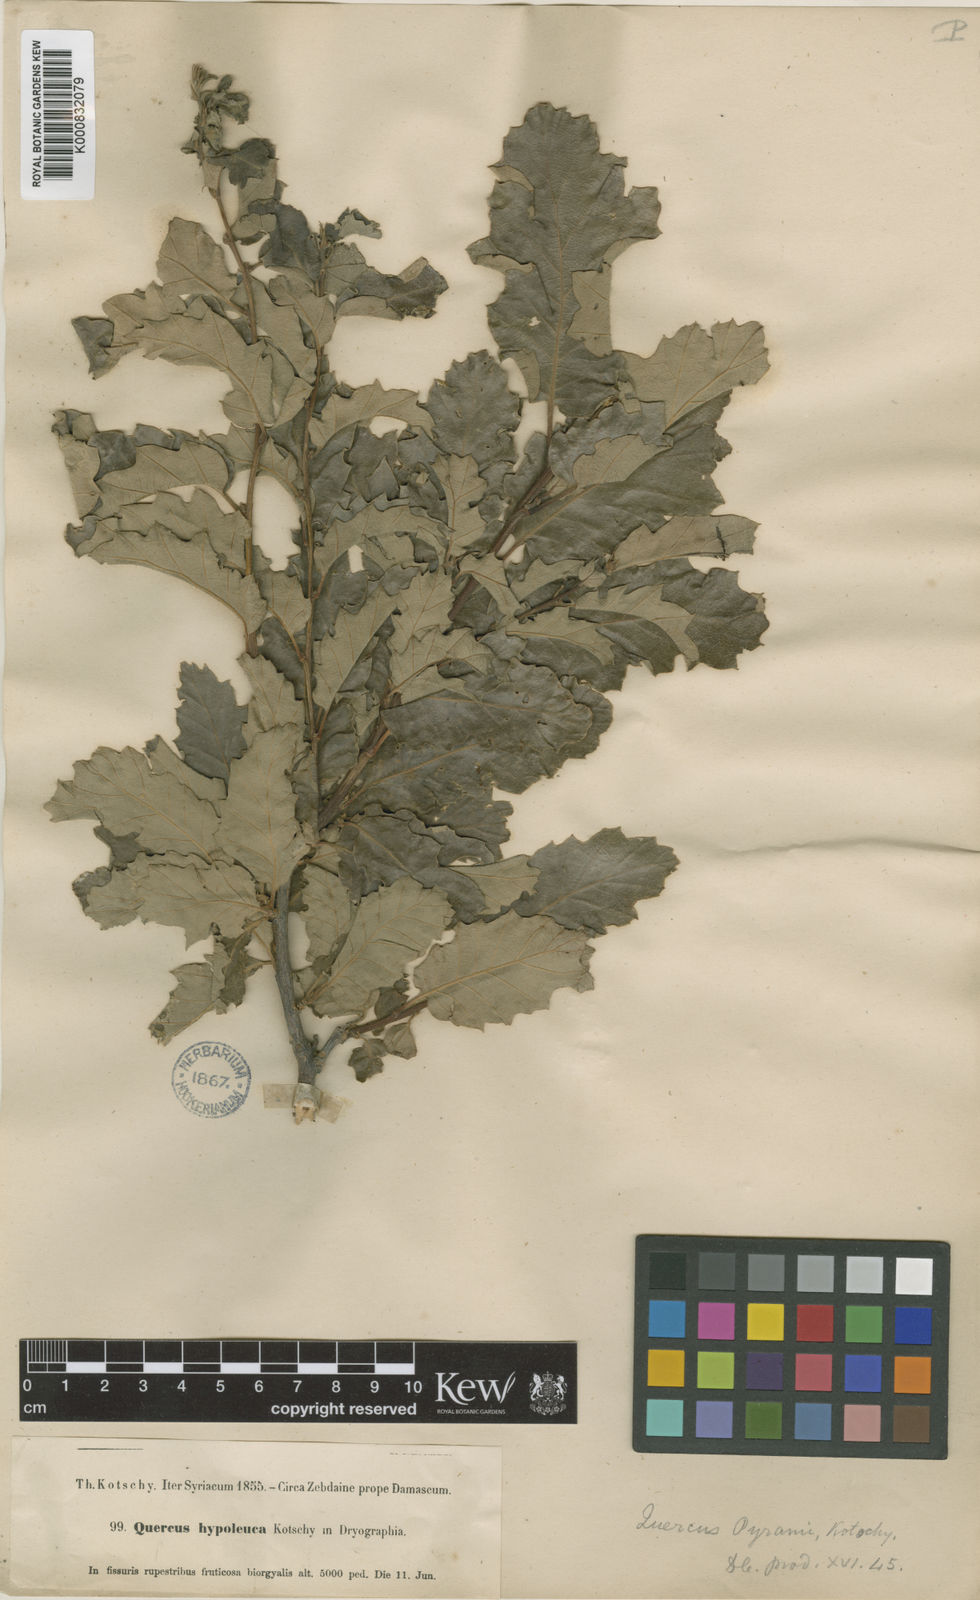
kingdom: Plantae
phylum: Tracheophyta
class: Magnoliopsida
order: Fagales
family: Fagaceae
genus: Quercus
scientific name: Quercus cerris
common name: Turkey oak
